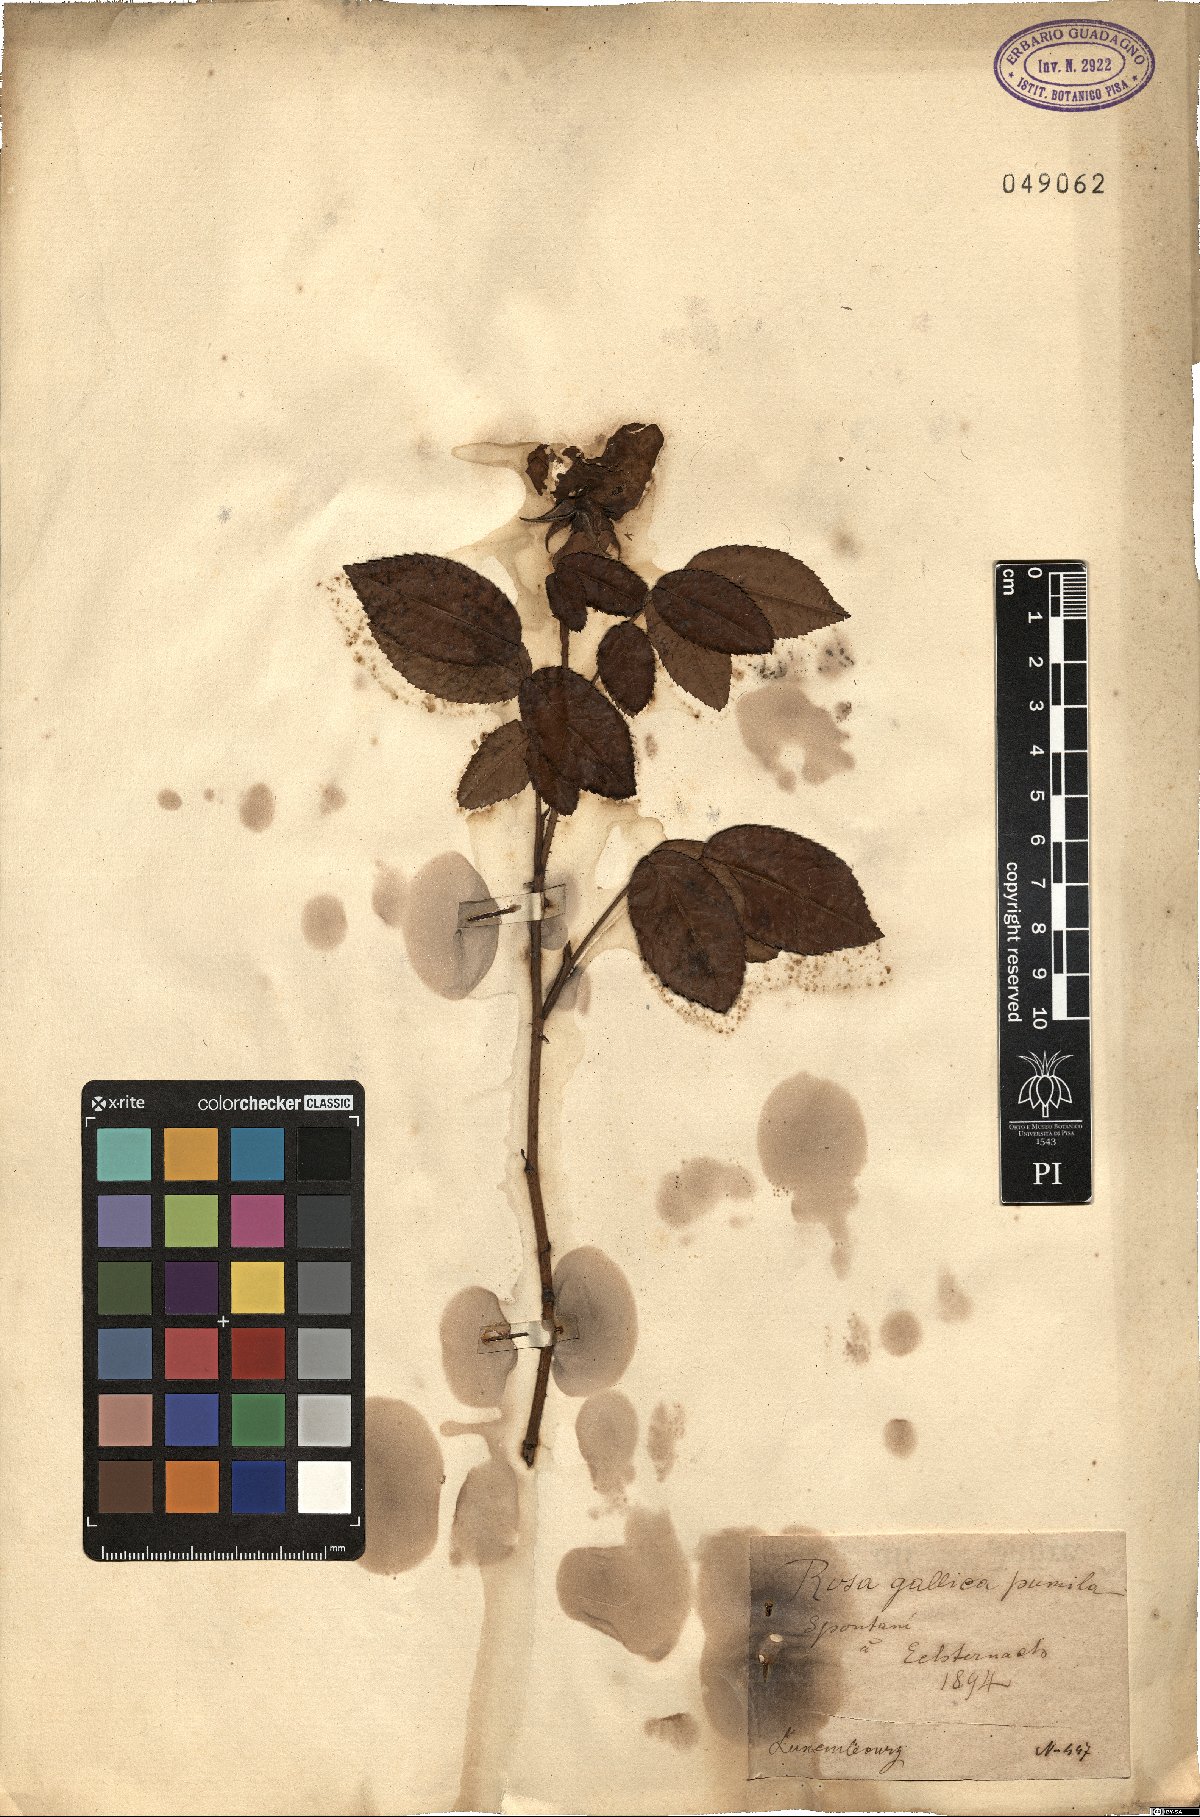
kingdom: Plantae
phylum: Tracheophyta
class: Magnoliopsida
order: Rosales
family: Rosaceae
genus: Rosa
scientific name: Rosa gallica
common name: French rose
